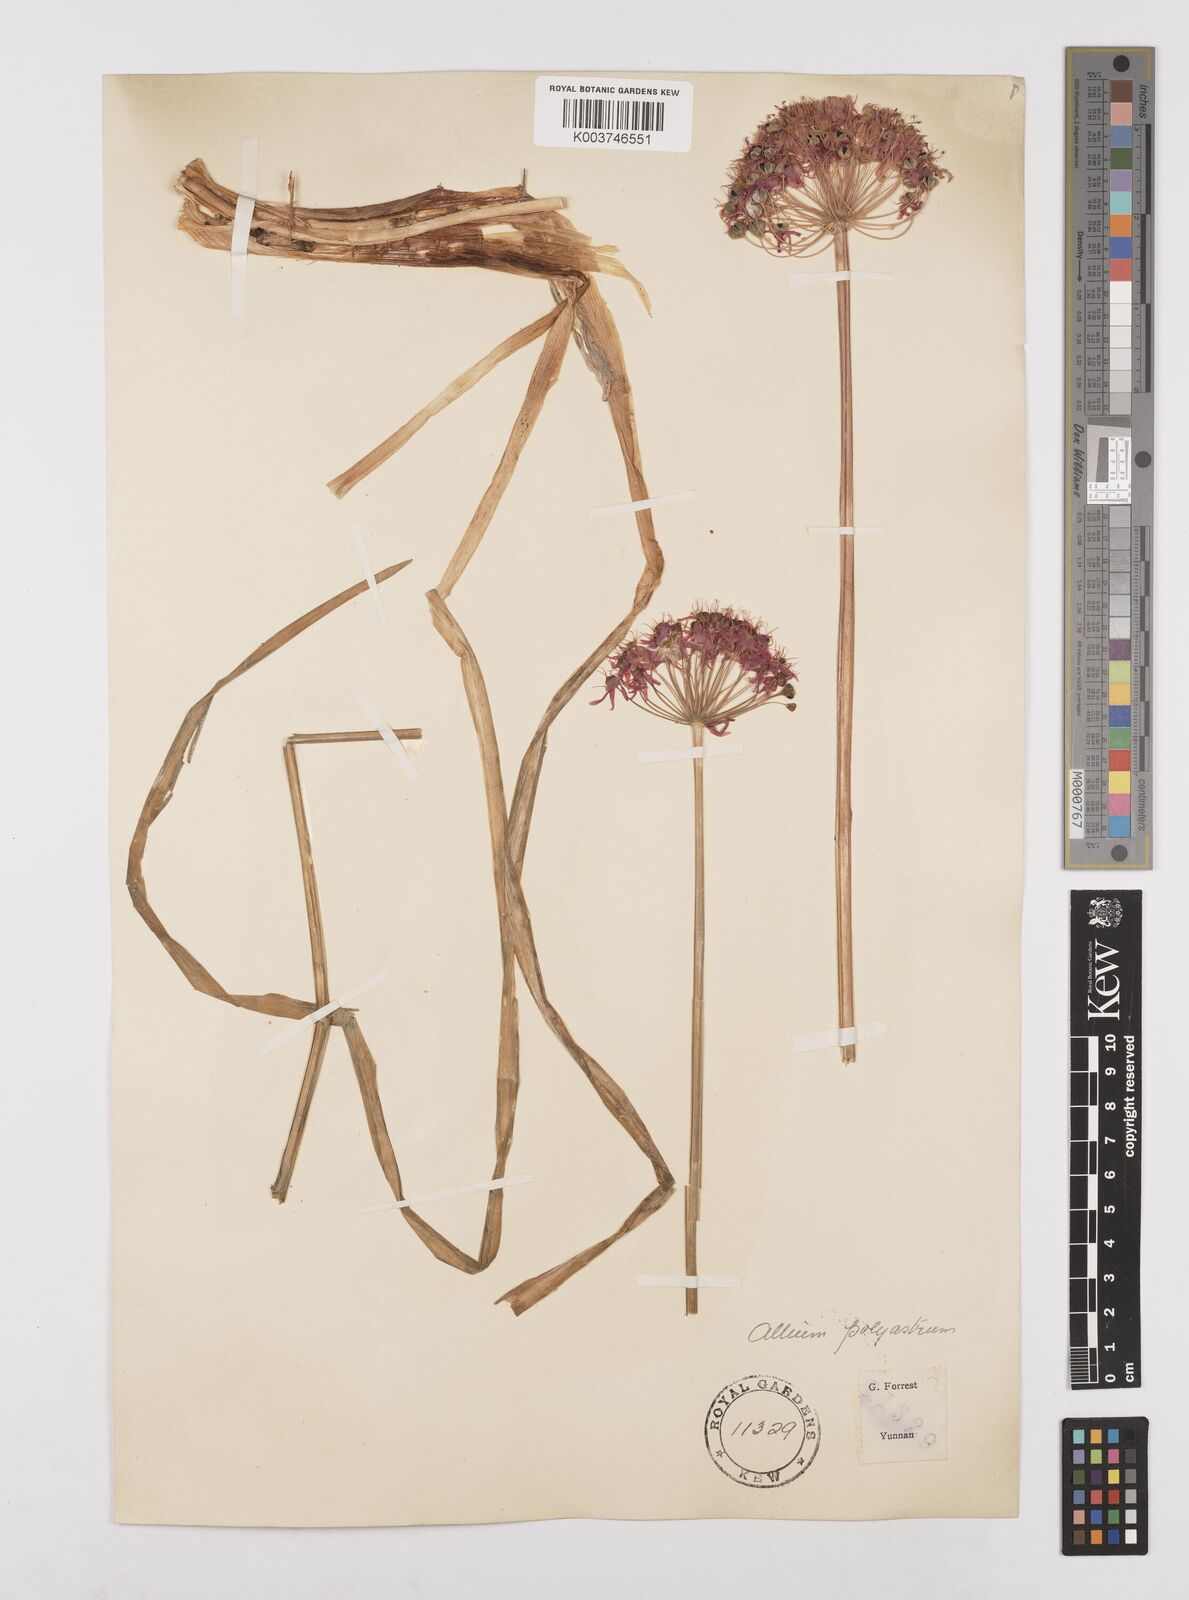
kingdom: Plantae
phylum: Tracheophyta
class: Liliopsida
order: Asparagales
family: Amaryllidaceae
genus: Allium
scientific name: Allium wallichii
